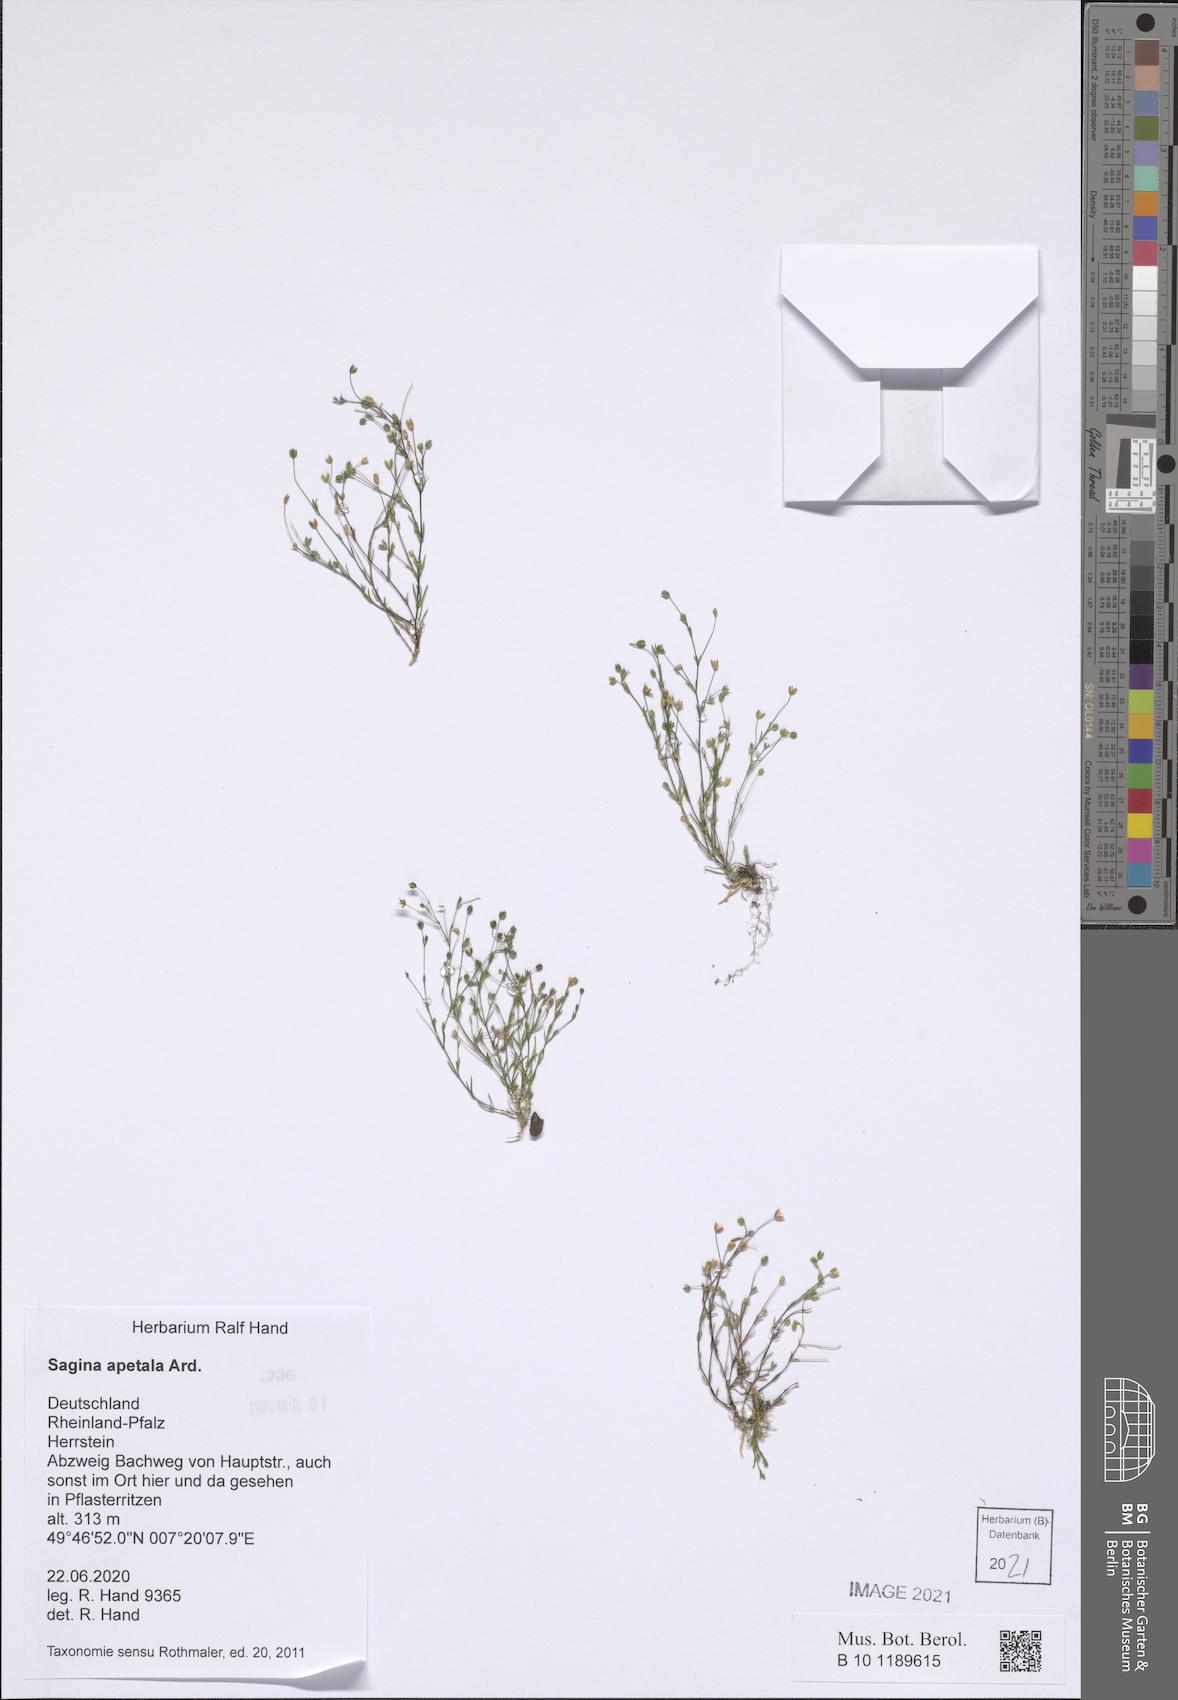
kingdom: Plantae
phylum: Tracheophyta
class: Magnoliopsida
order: Caryophyllales
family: Caryophyllaceae
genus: Sagina
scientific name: Sagina apetala
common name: Annual pearlwort
